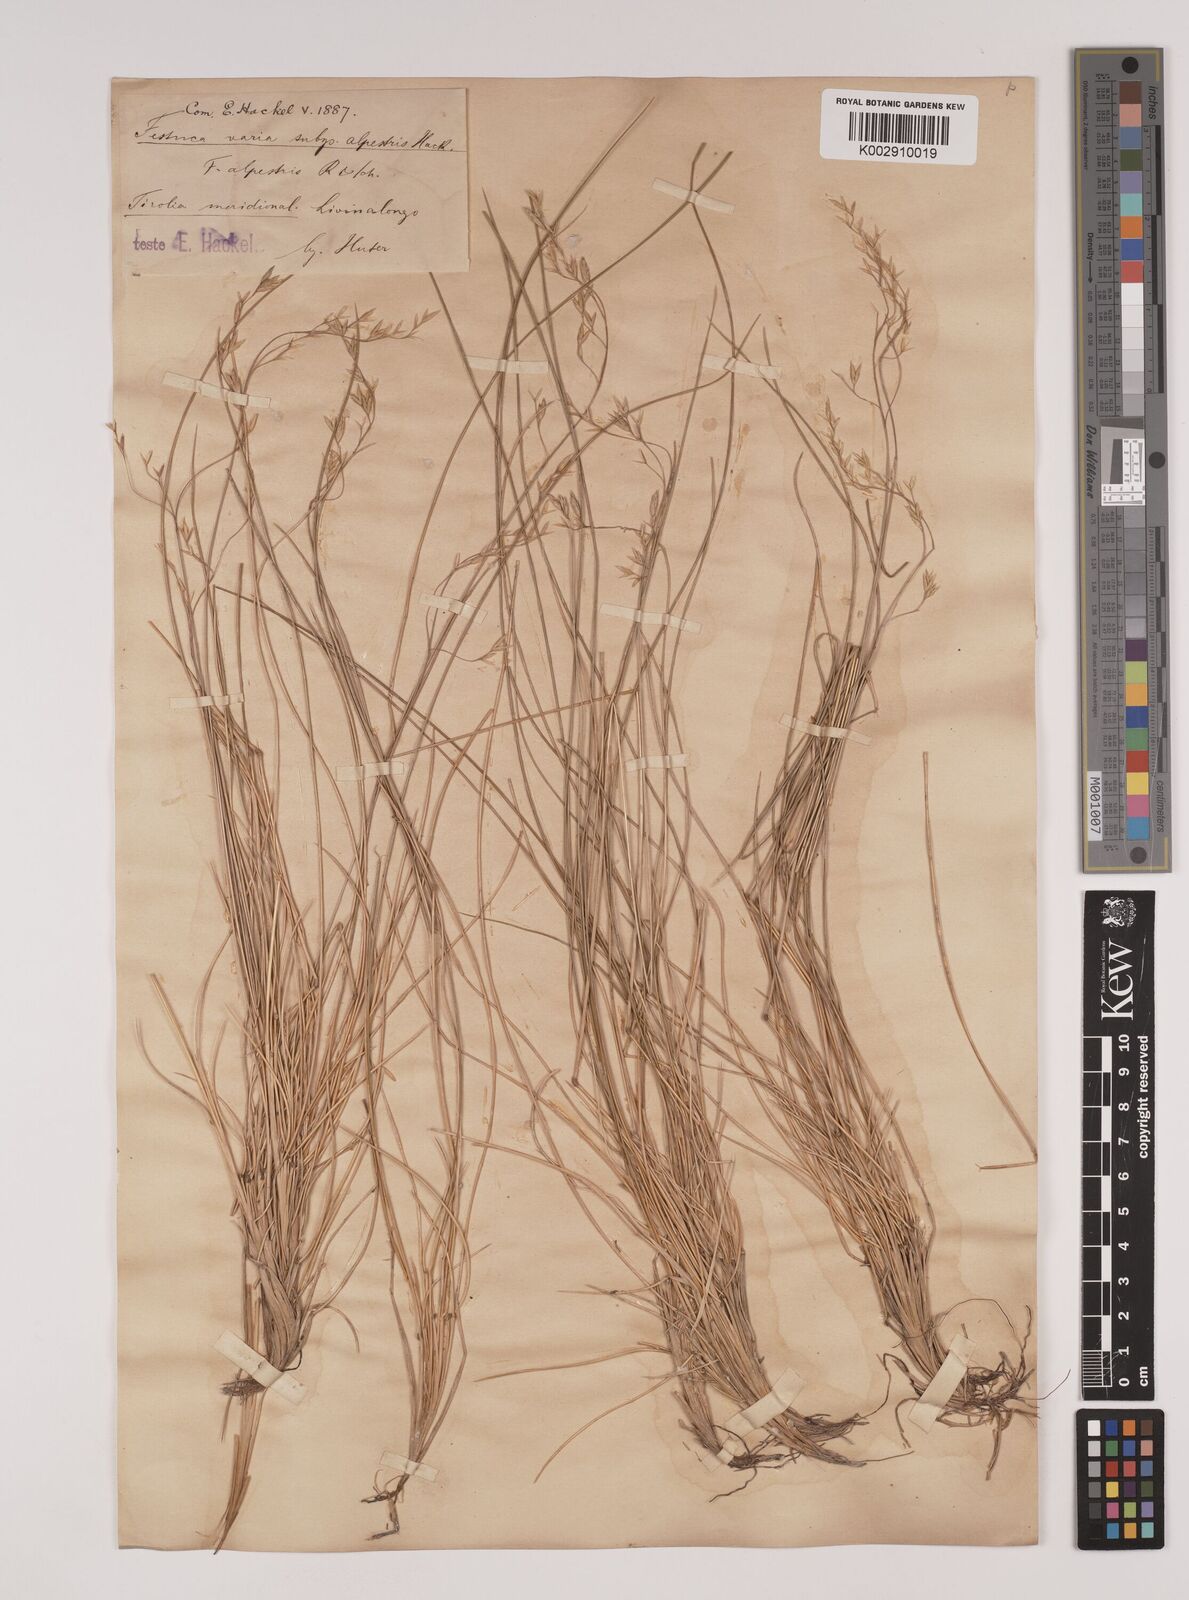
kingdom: Plantae
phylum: Tracheophyta
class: Liliopsida
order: Poales
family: Poaceae
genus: Festuca
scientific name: Festuca alpestris
